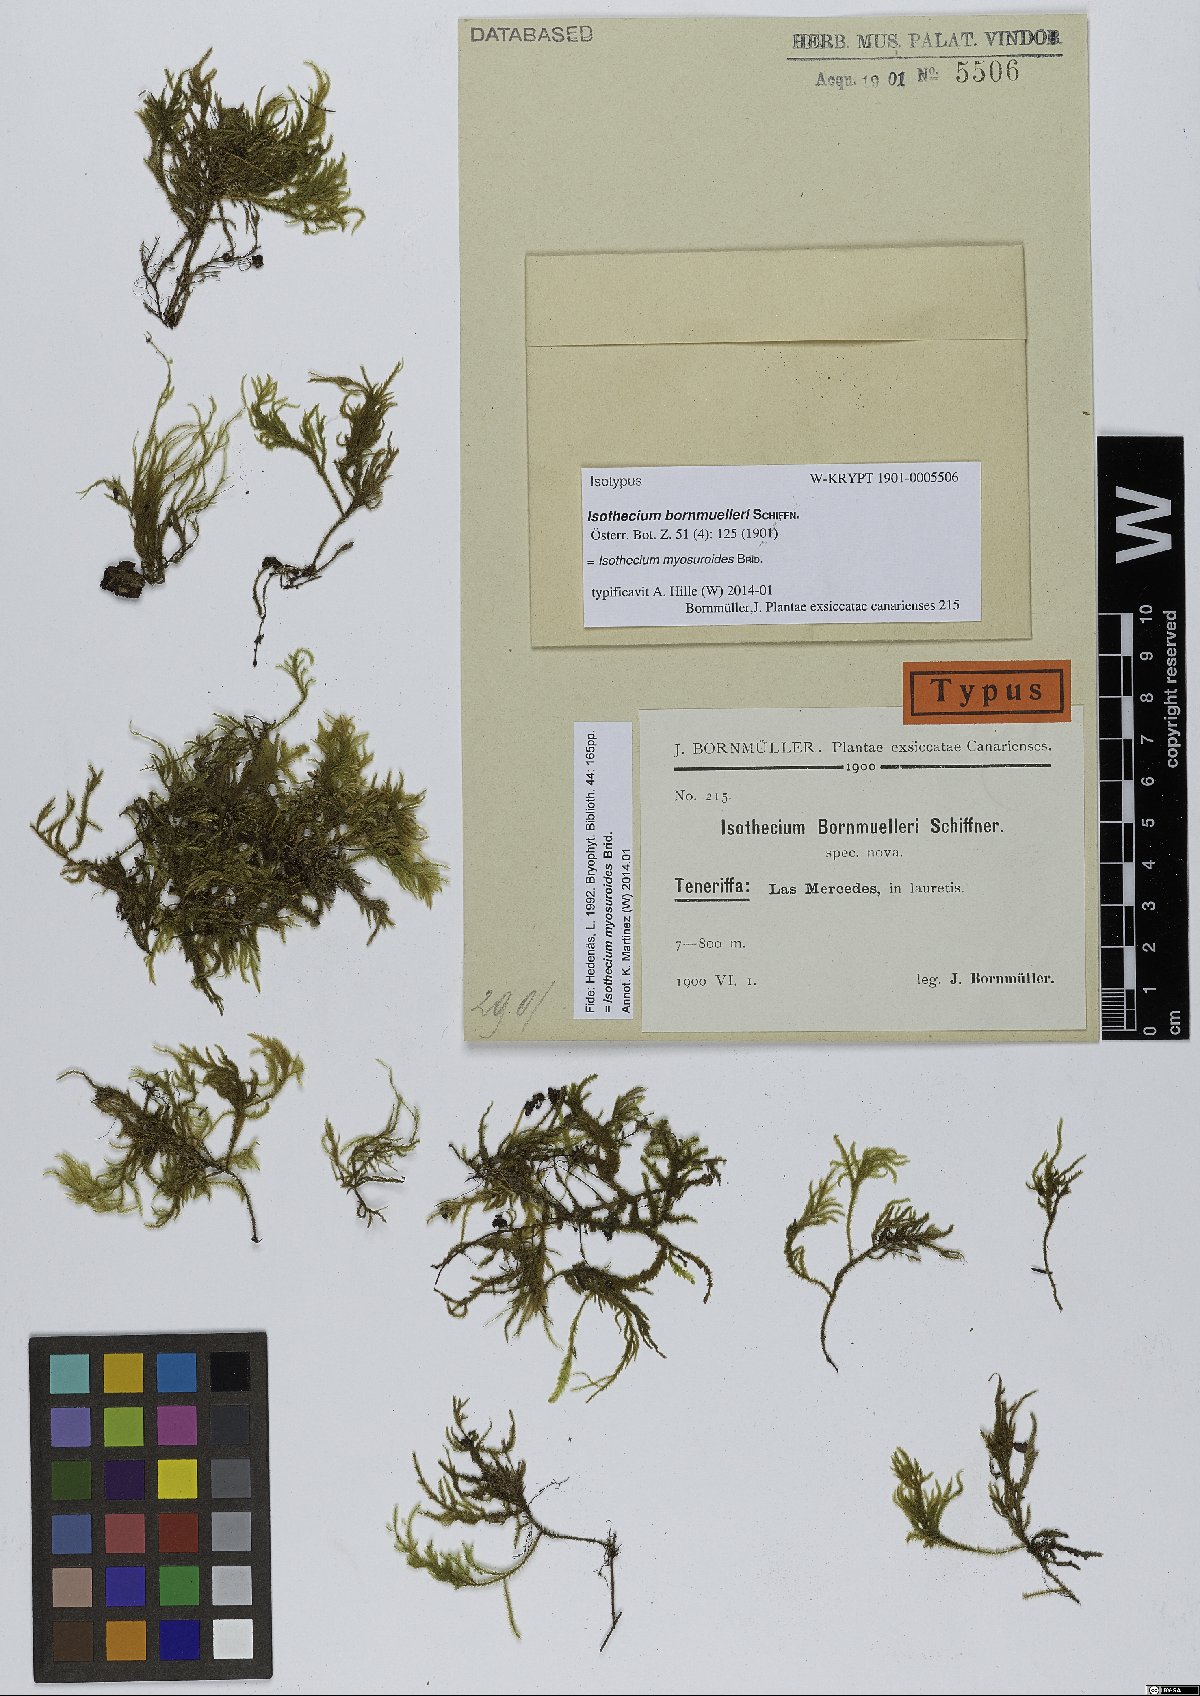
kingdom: Plantae
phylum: Bryophyta
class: Bryopsida
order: Hypnales
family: Lembophyllaceae
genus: Pseudisothecium
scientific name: Pseudisothecium myosuroides
